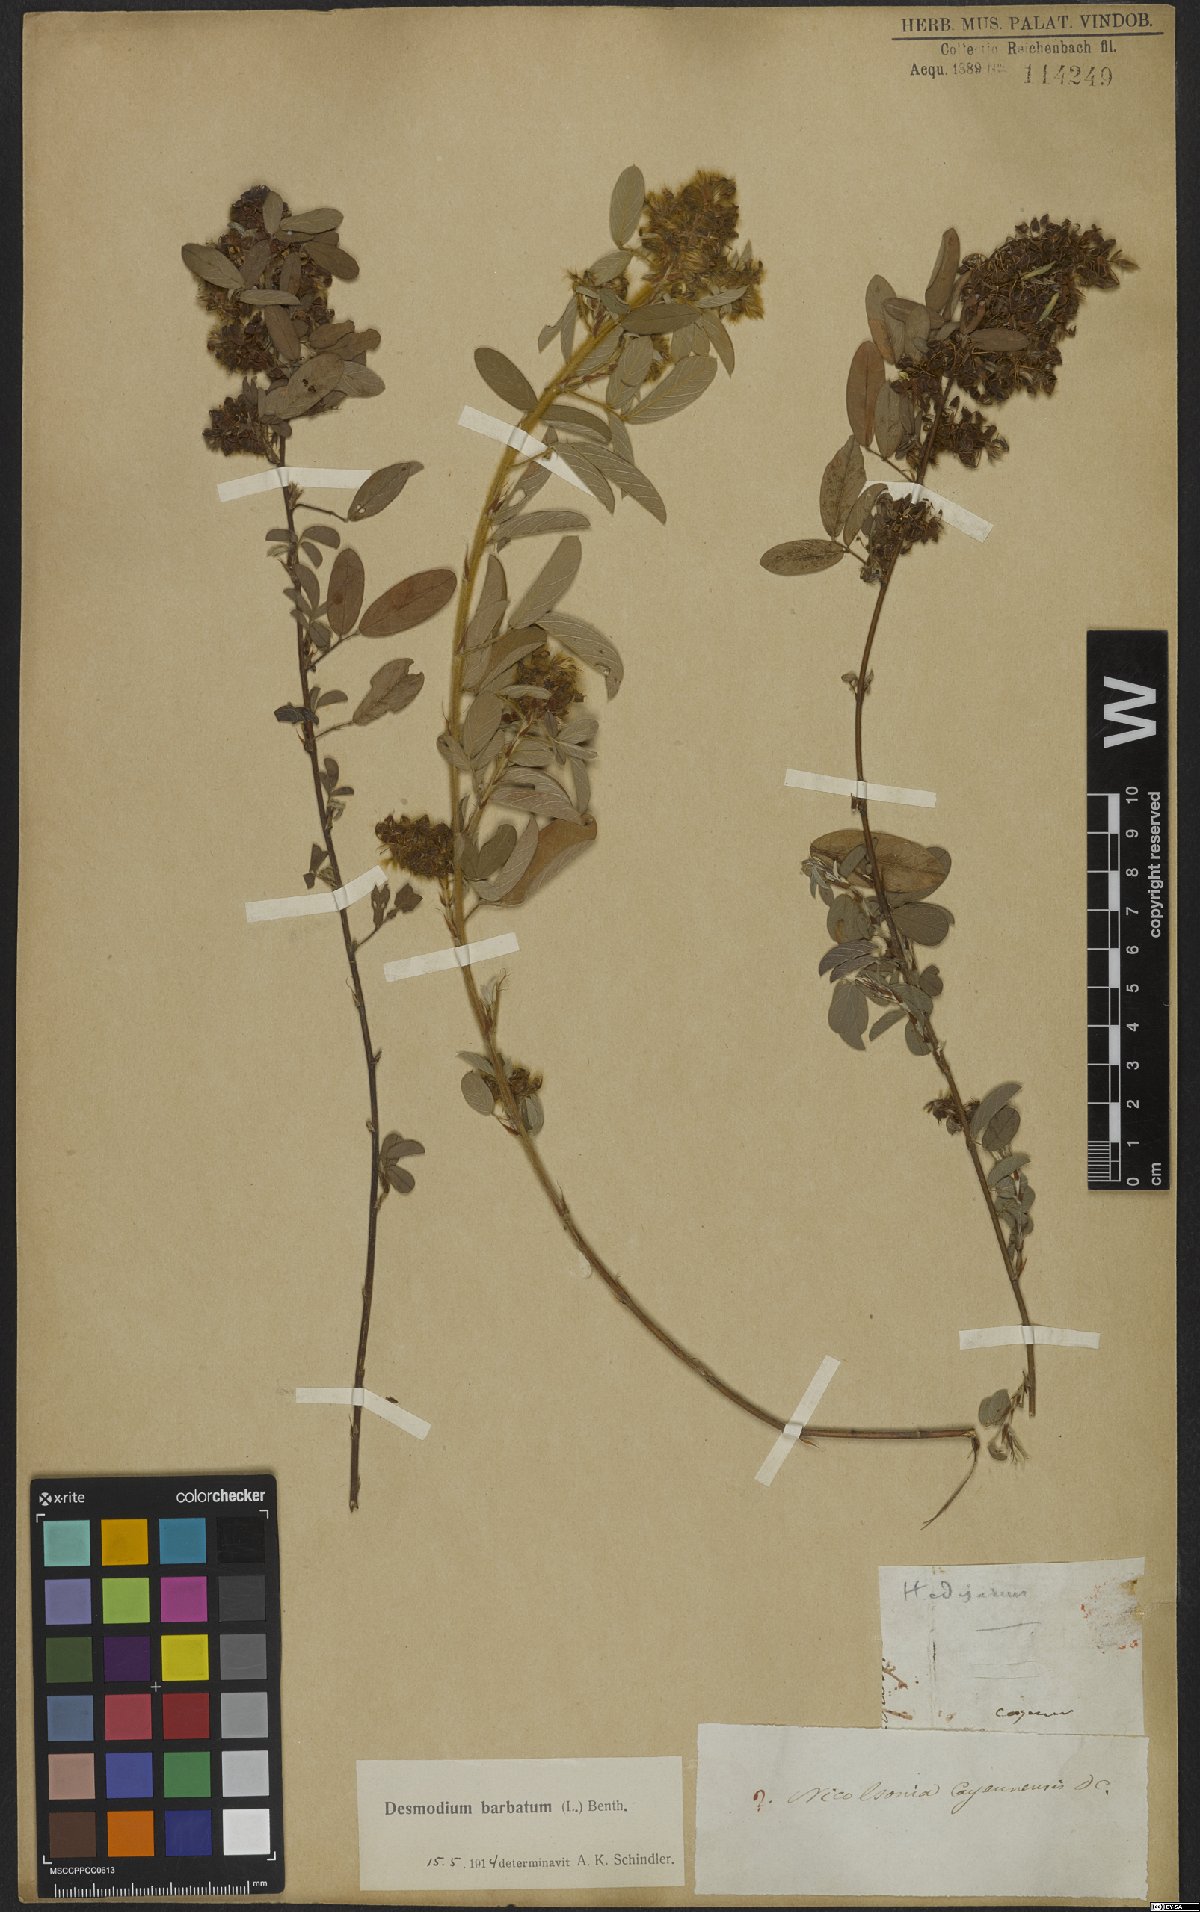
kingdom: Plantae
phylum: Tracheophyta
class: Magnoliopsida
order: Fabales
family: Fabaceae
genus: Grona
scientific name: Grona barbata
